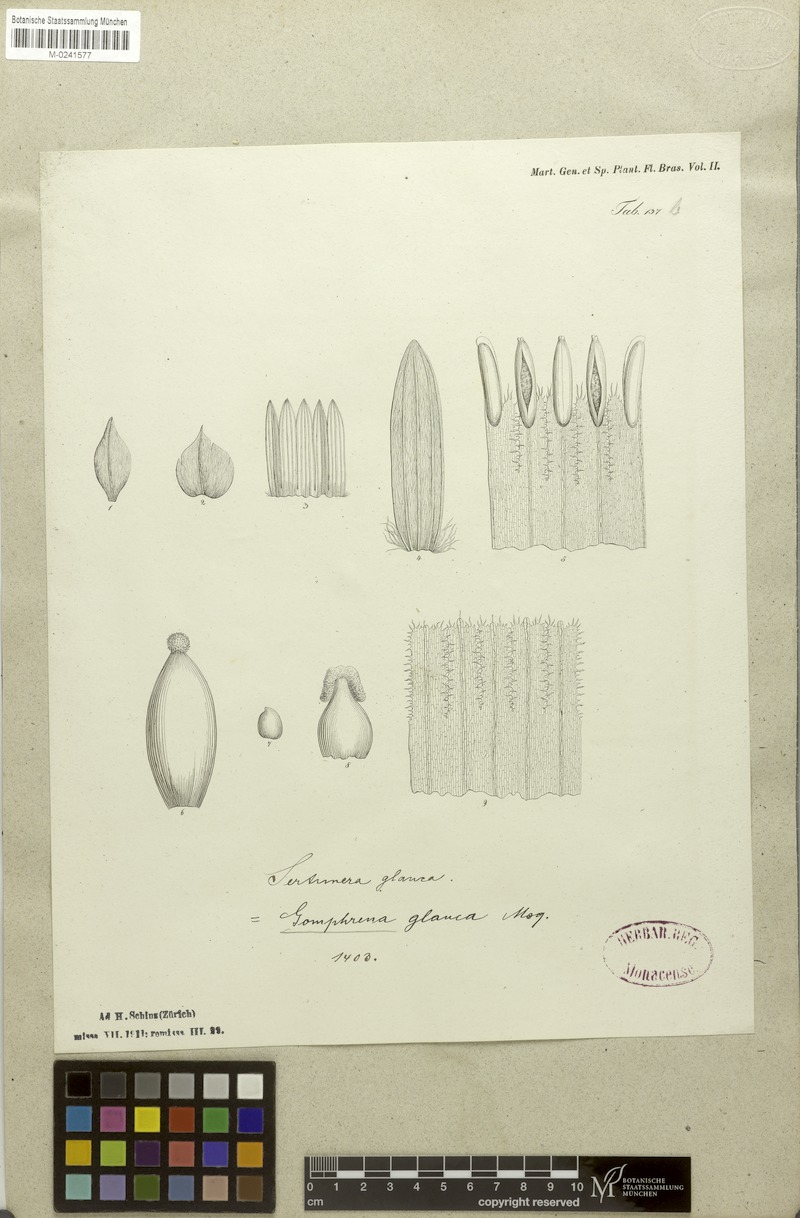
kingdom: Plantae
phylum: Tracheophyta
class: Magnoliopsida
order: Caryophyllales
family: Amaranthaceae
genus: Pfaffia
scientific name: Pfaffia glomerata
